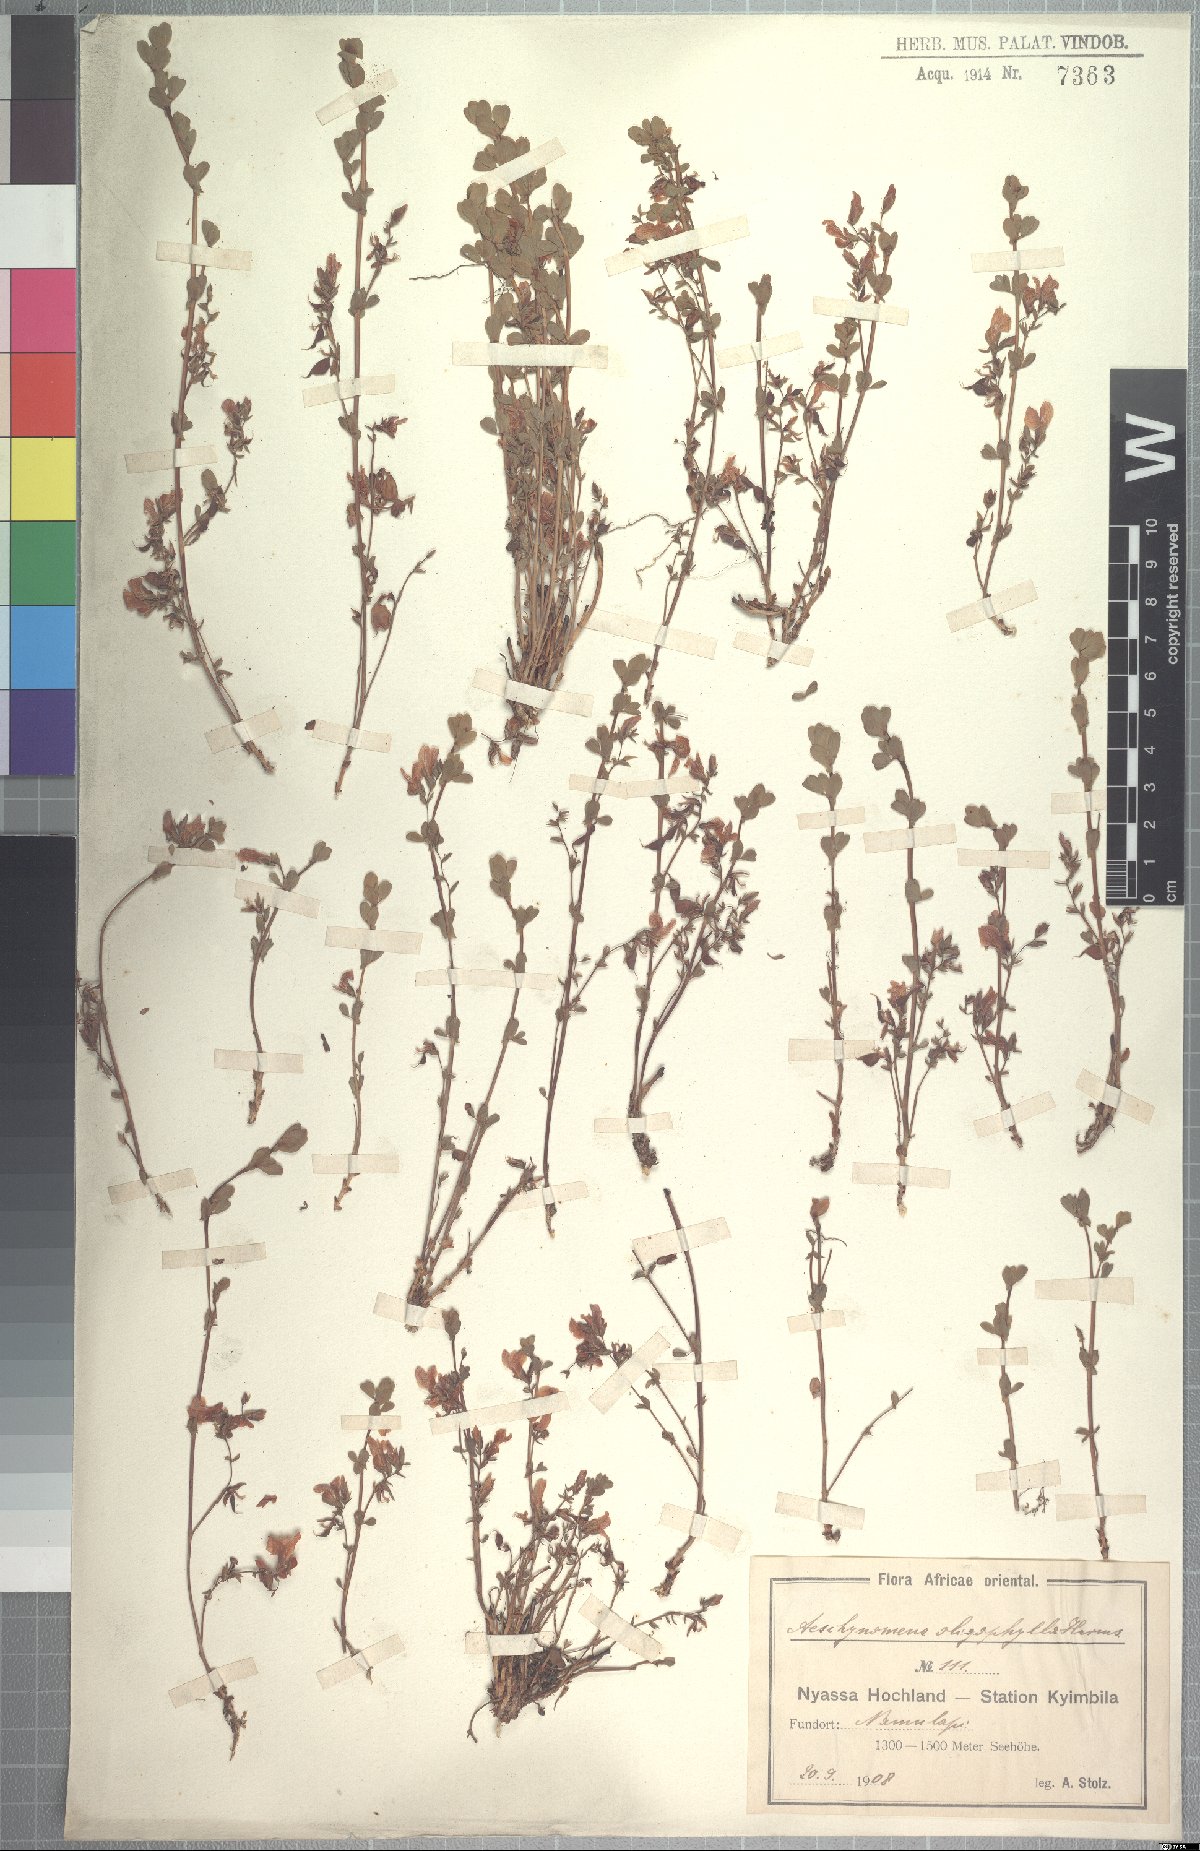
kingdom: Plantae
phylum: Tracheophyta
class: Magnoliopsida
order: Fabales
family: Fabaceae
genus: Aeschynomene
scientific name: Aeschynomene oligophylla
